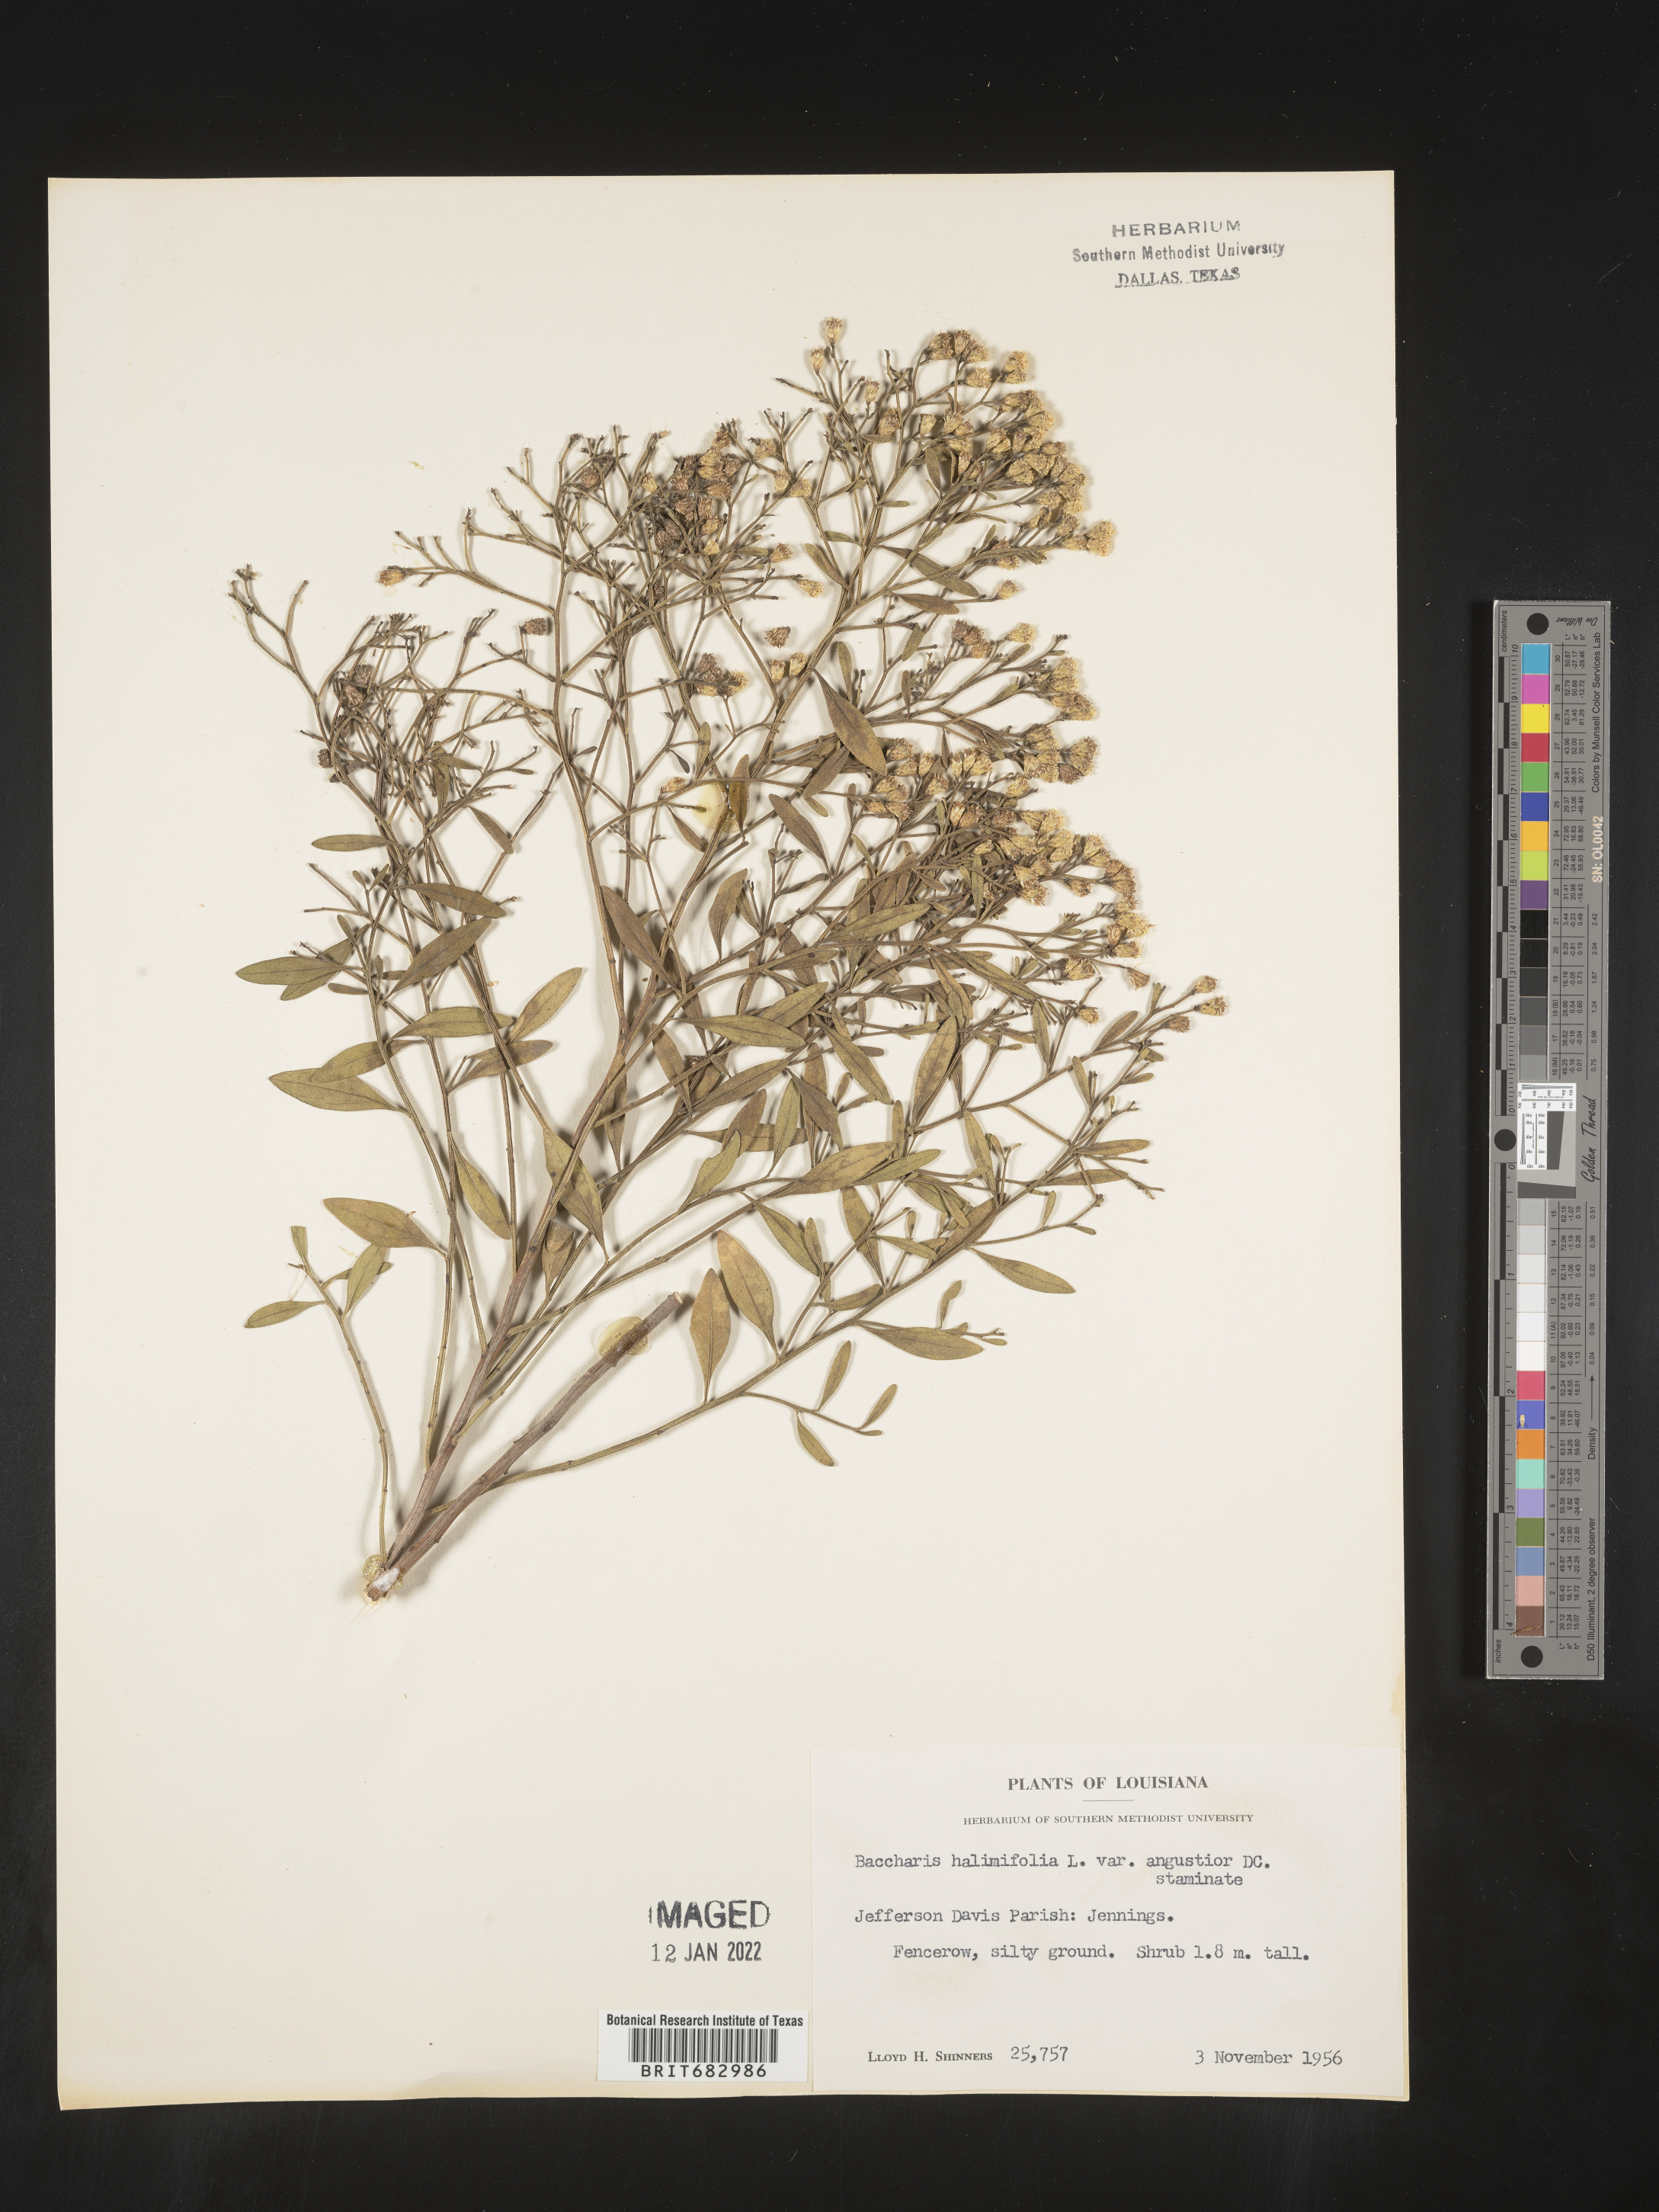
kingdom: Plantae
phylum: Tracheophyta
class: Magnoliopsida
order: Asterales
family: Asteraceae
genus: Nidorella
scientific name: Nidorella ivifolia
